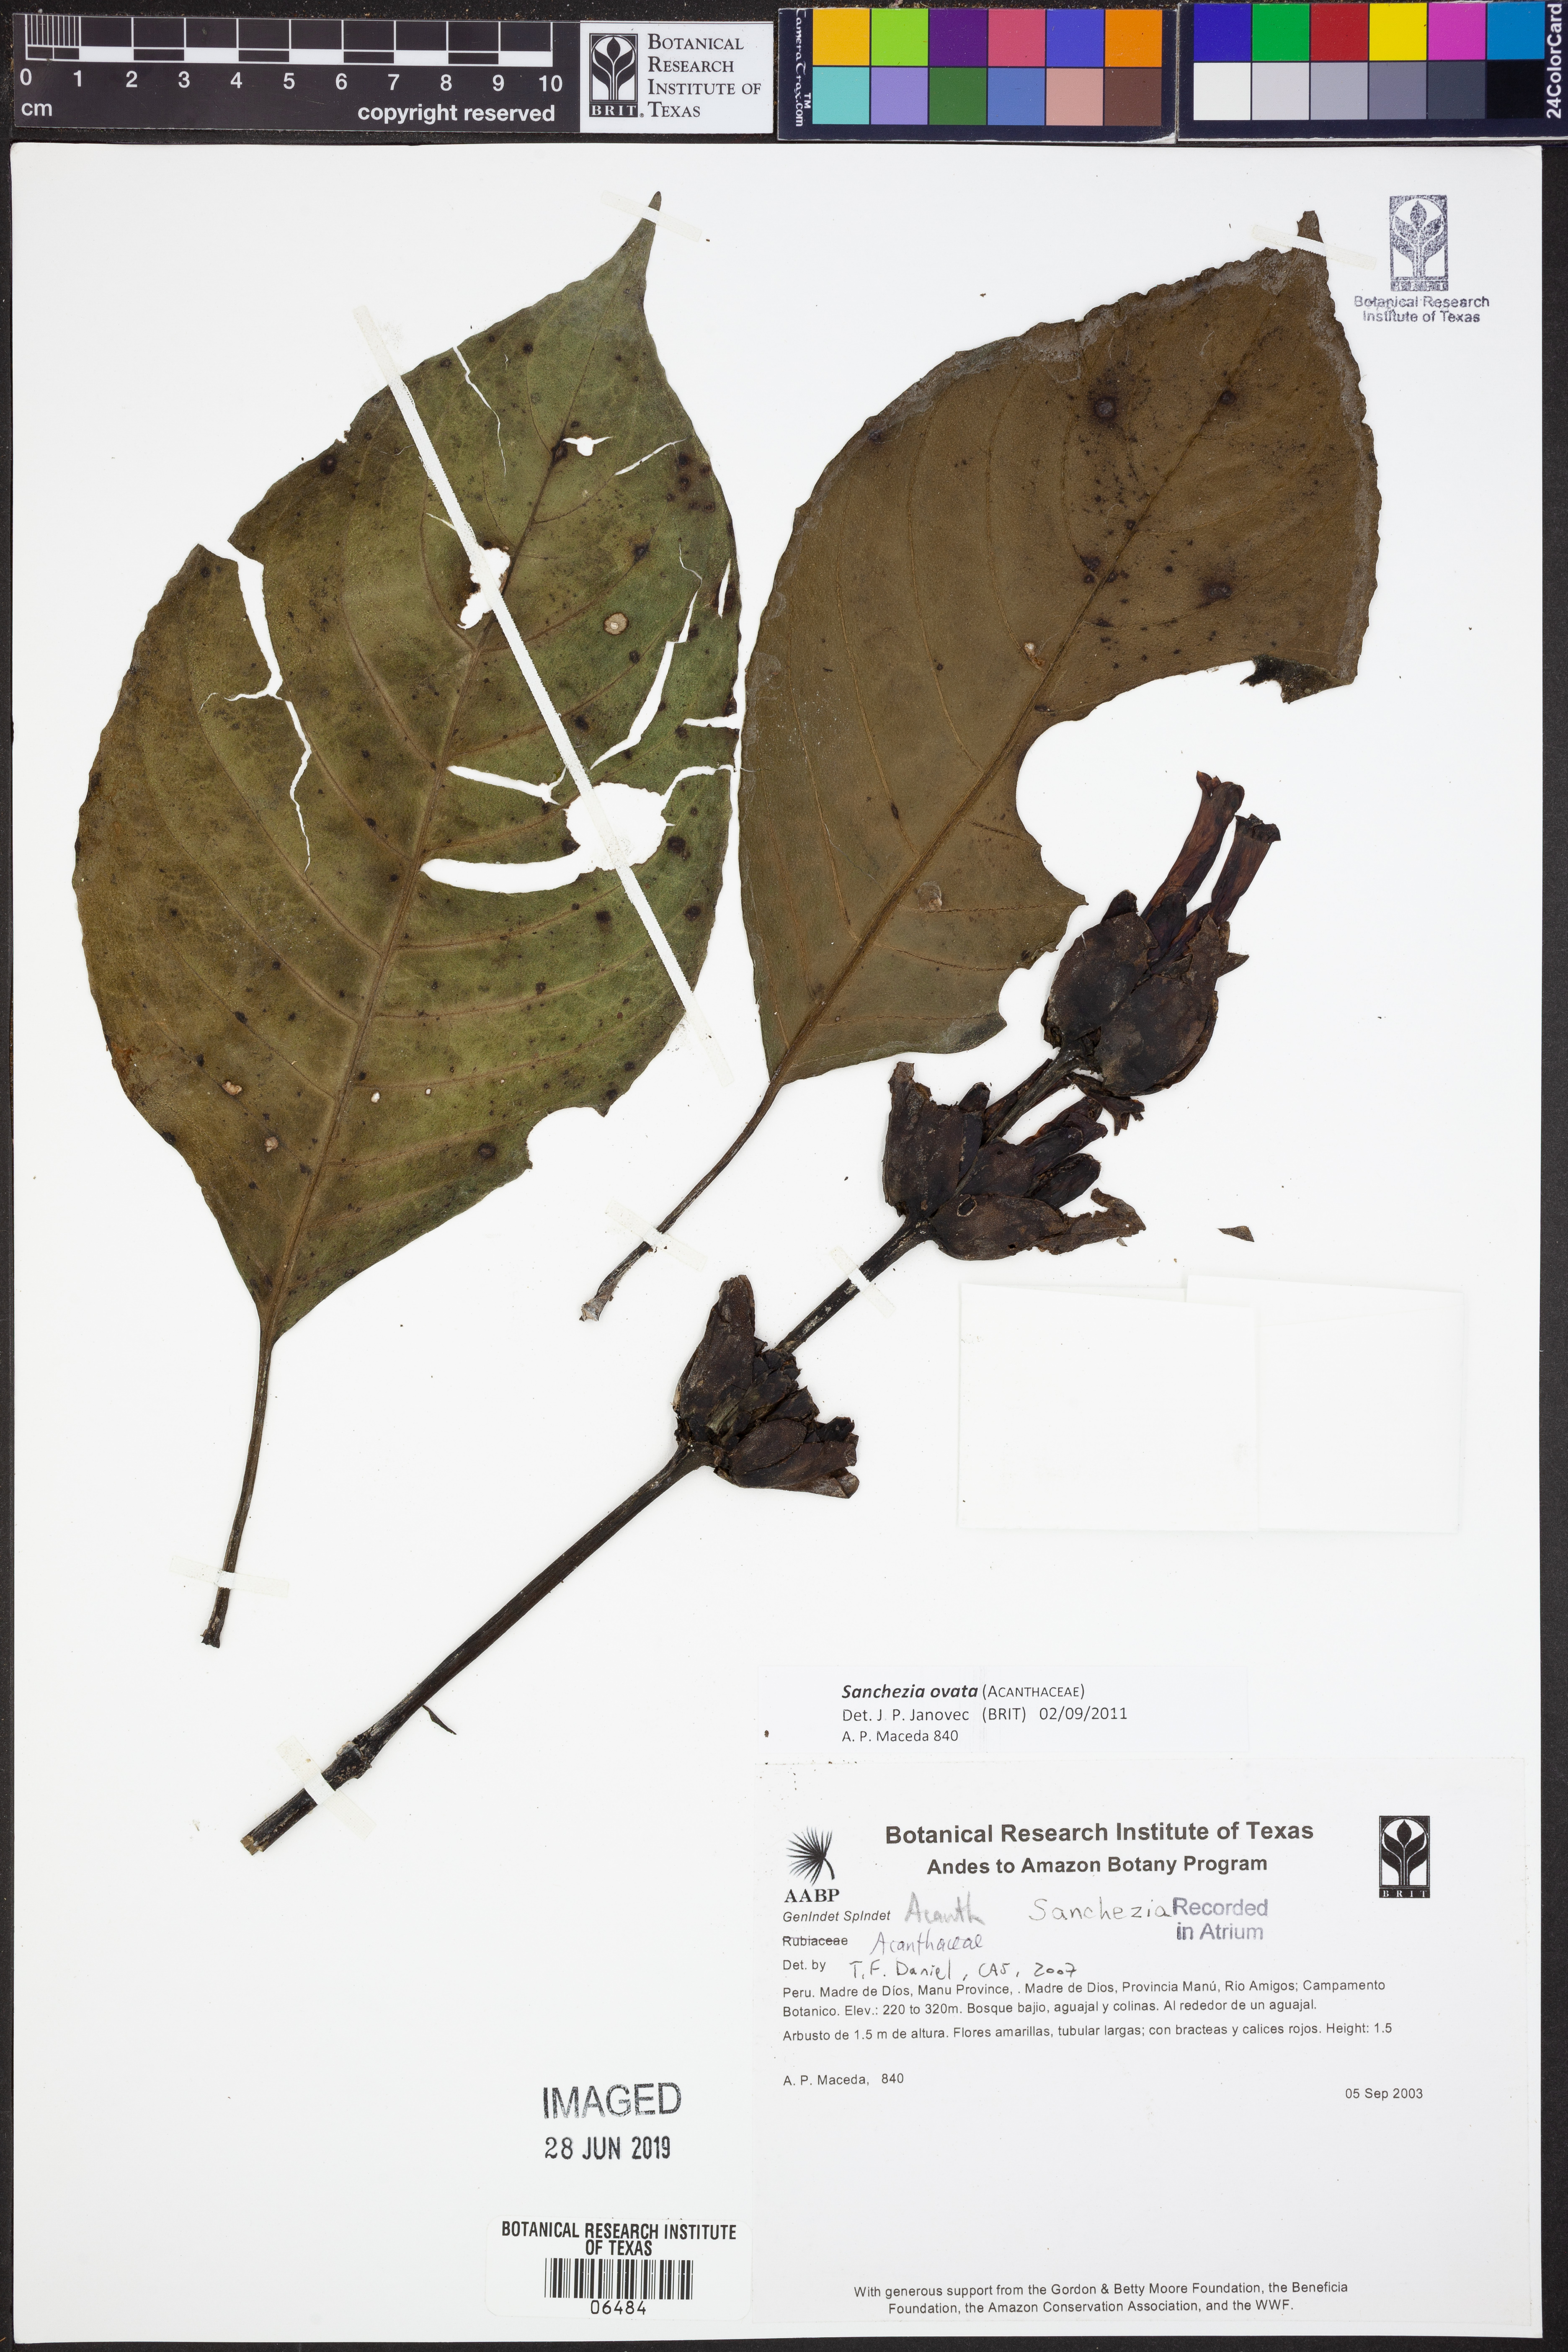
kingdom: Plantae
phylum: Tracheophyta
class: Magnoliopsida
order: Lamiales
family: Acanthaceae
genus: Sanchezia
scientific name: Sanchezia
